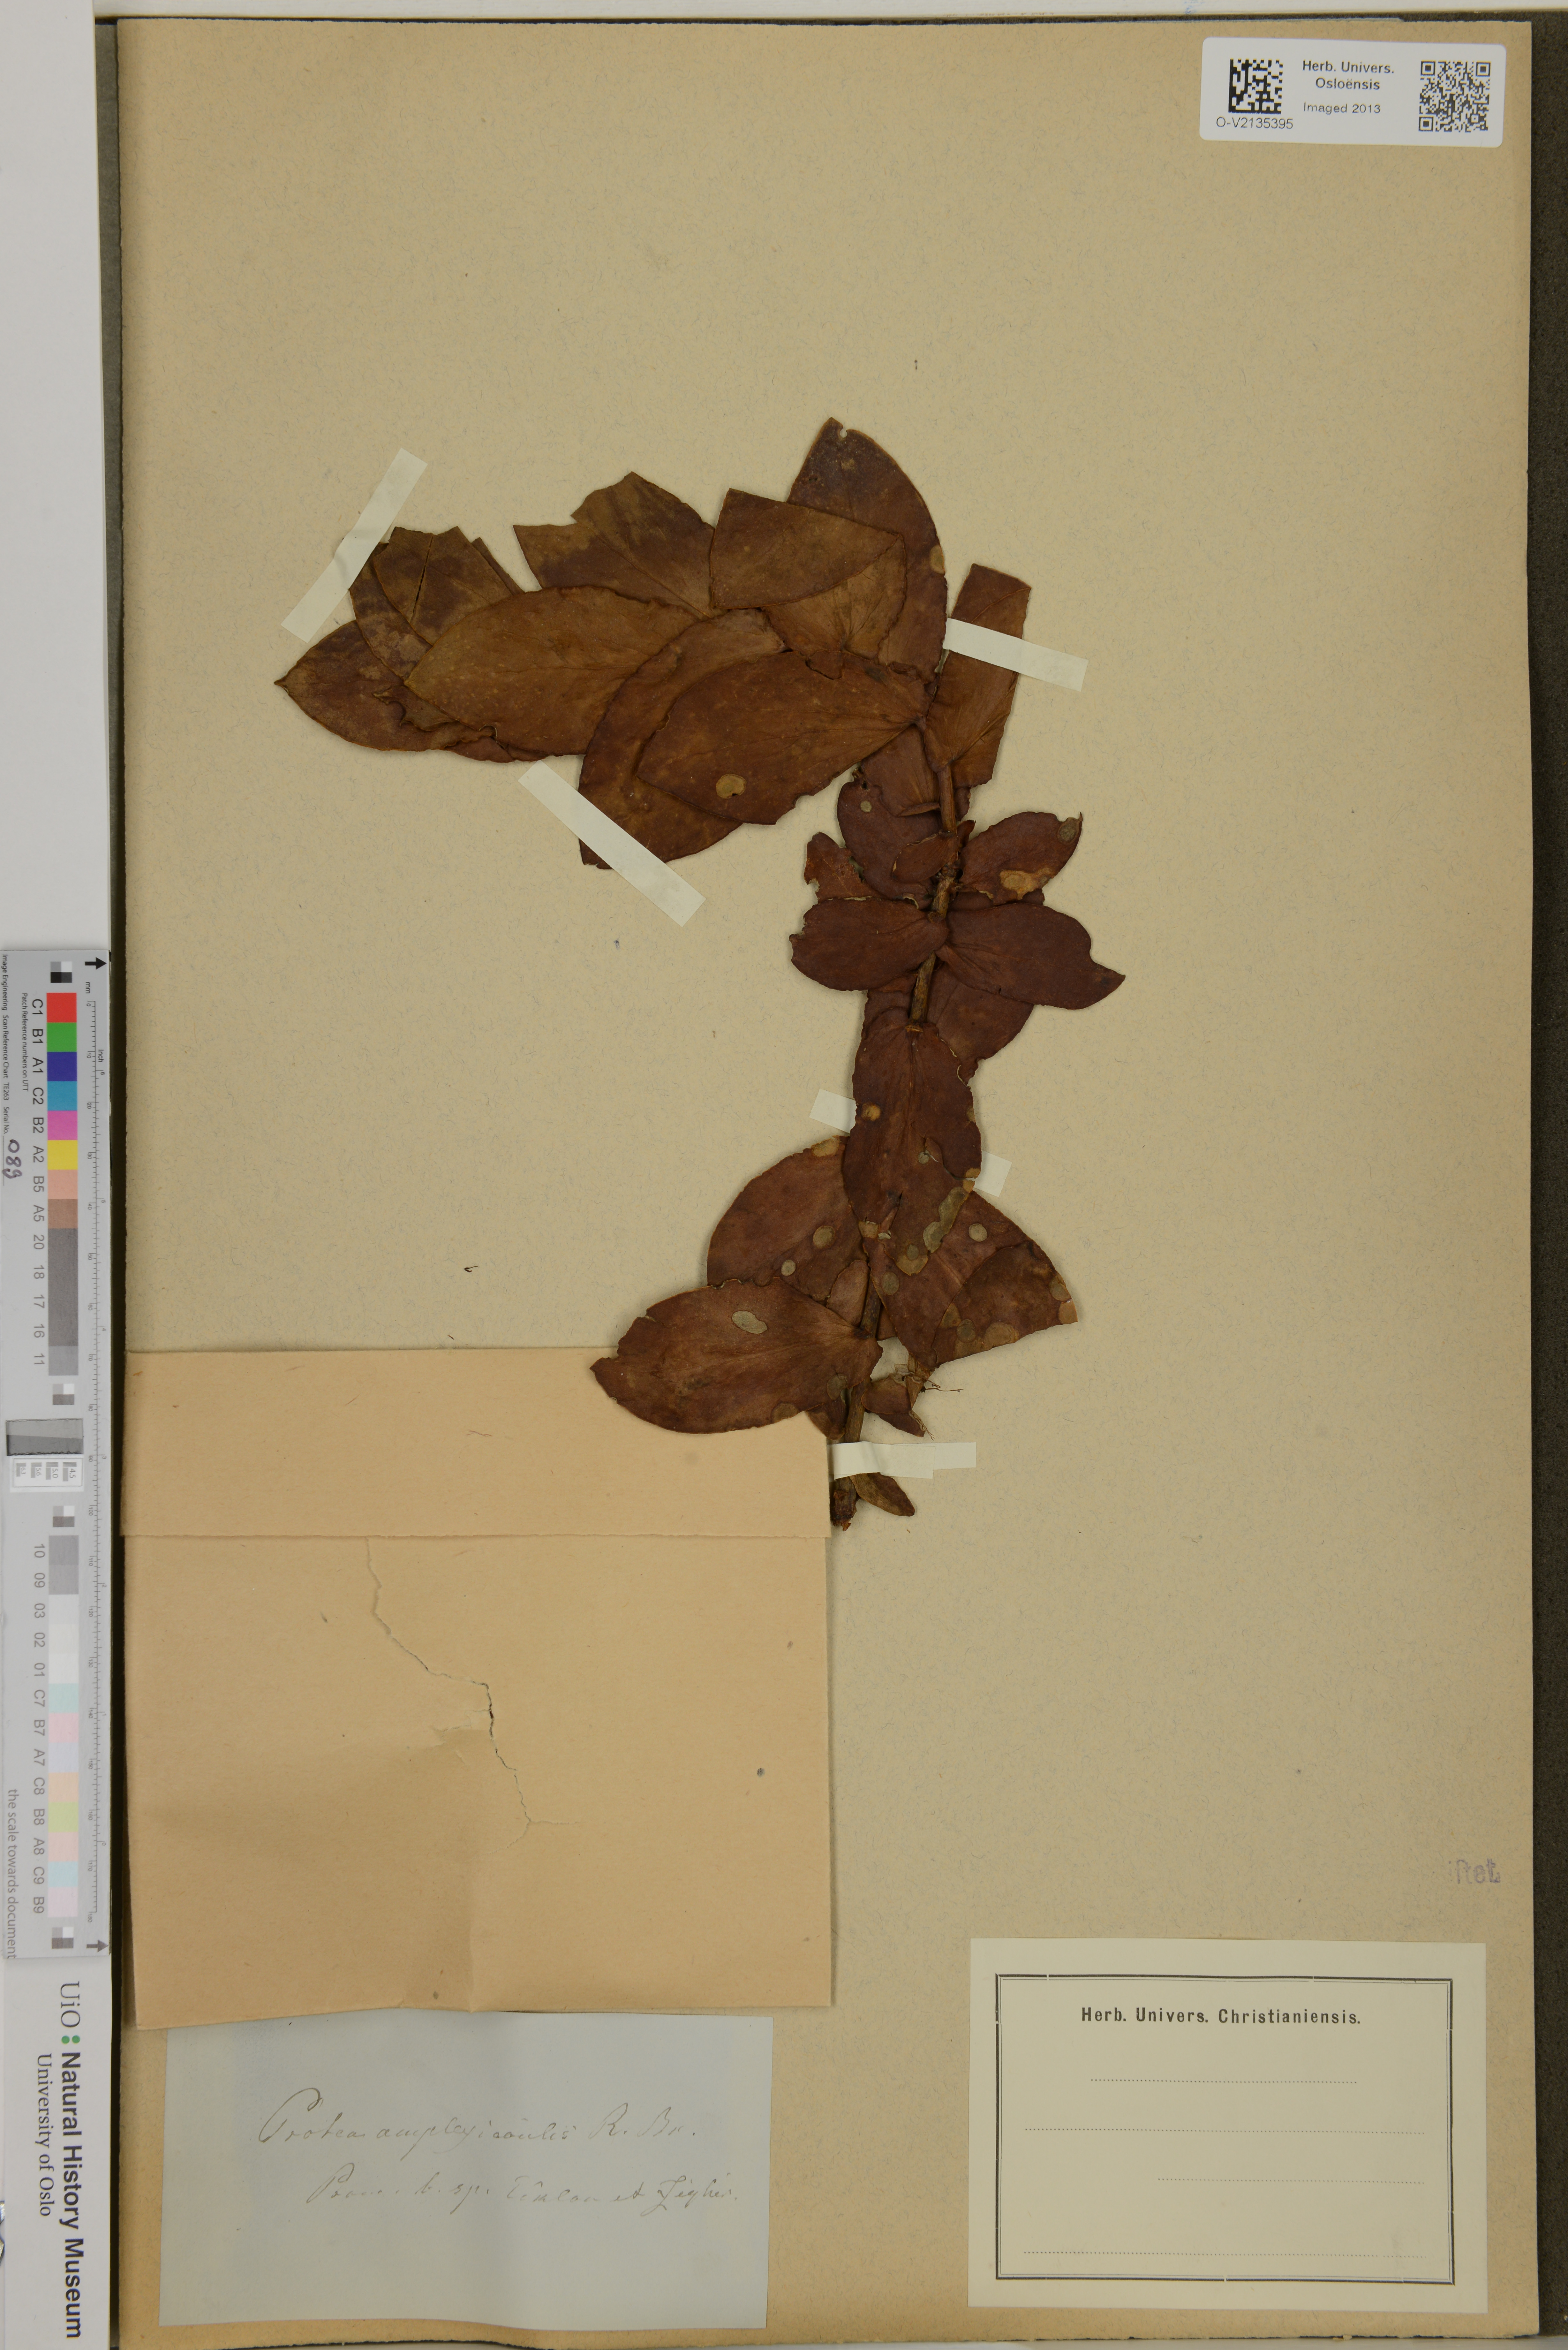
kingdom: Plantae
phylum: Tracheophyta
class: Magnoliopsida
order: Proteales
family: Proteaceae
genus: Protea
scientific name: Protea amplexicaulis
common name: Clasping-leaf sugarbush
